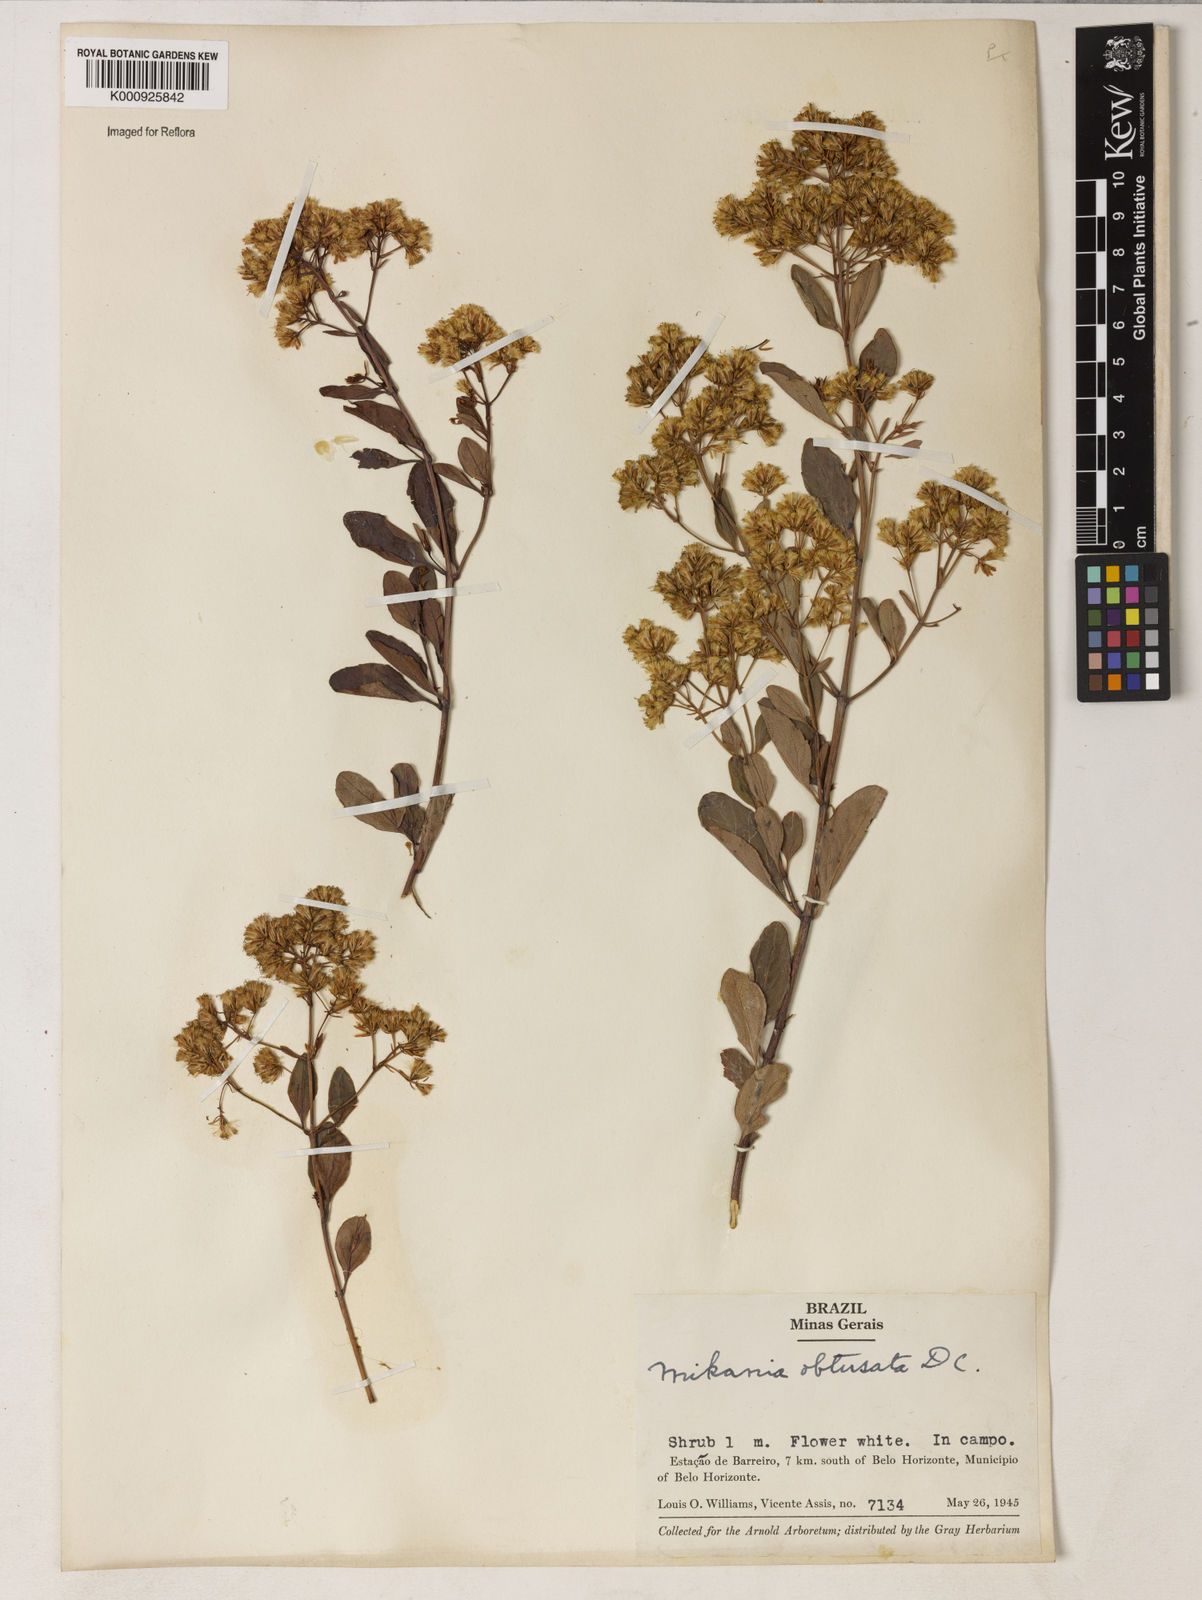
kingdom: Plantae
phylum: Tracheophyta
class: Magnoliopsida
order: Asterales
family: Asteraceae
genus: Mikania
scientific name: Mikania obtusata
